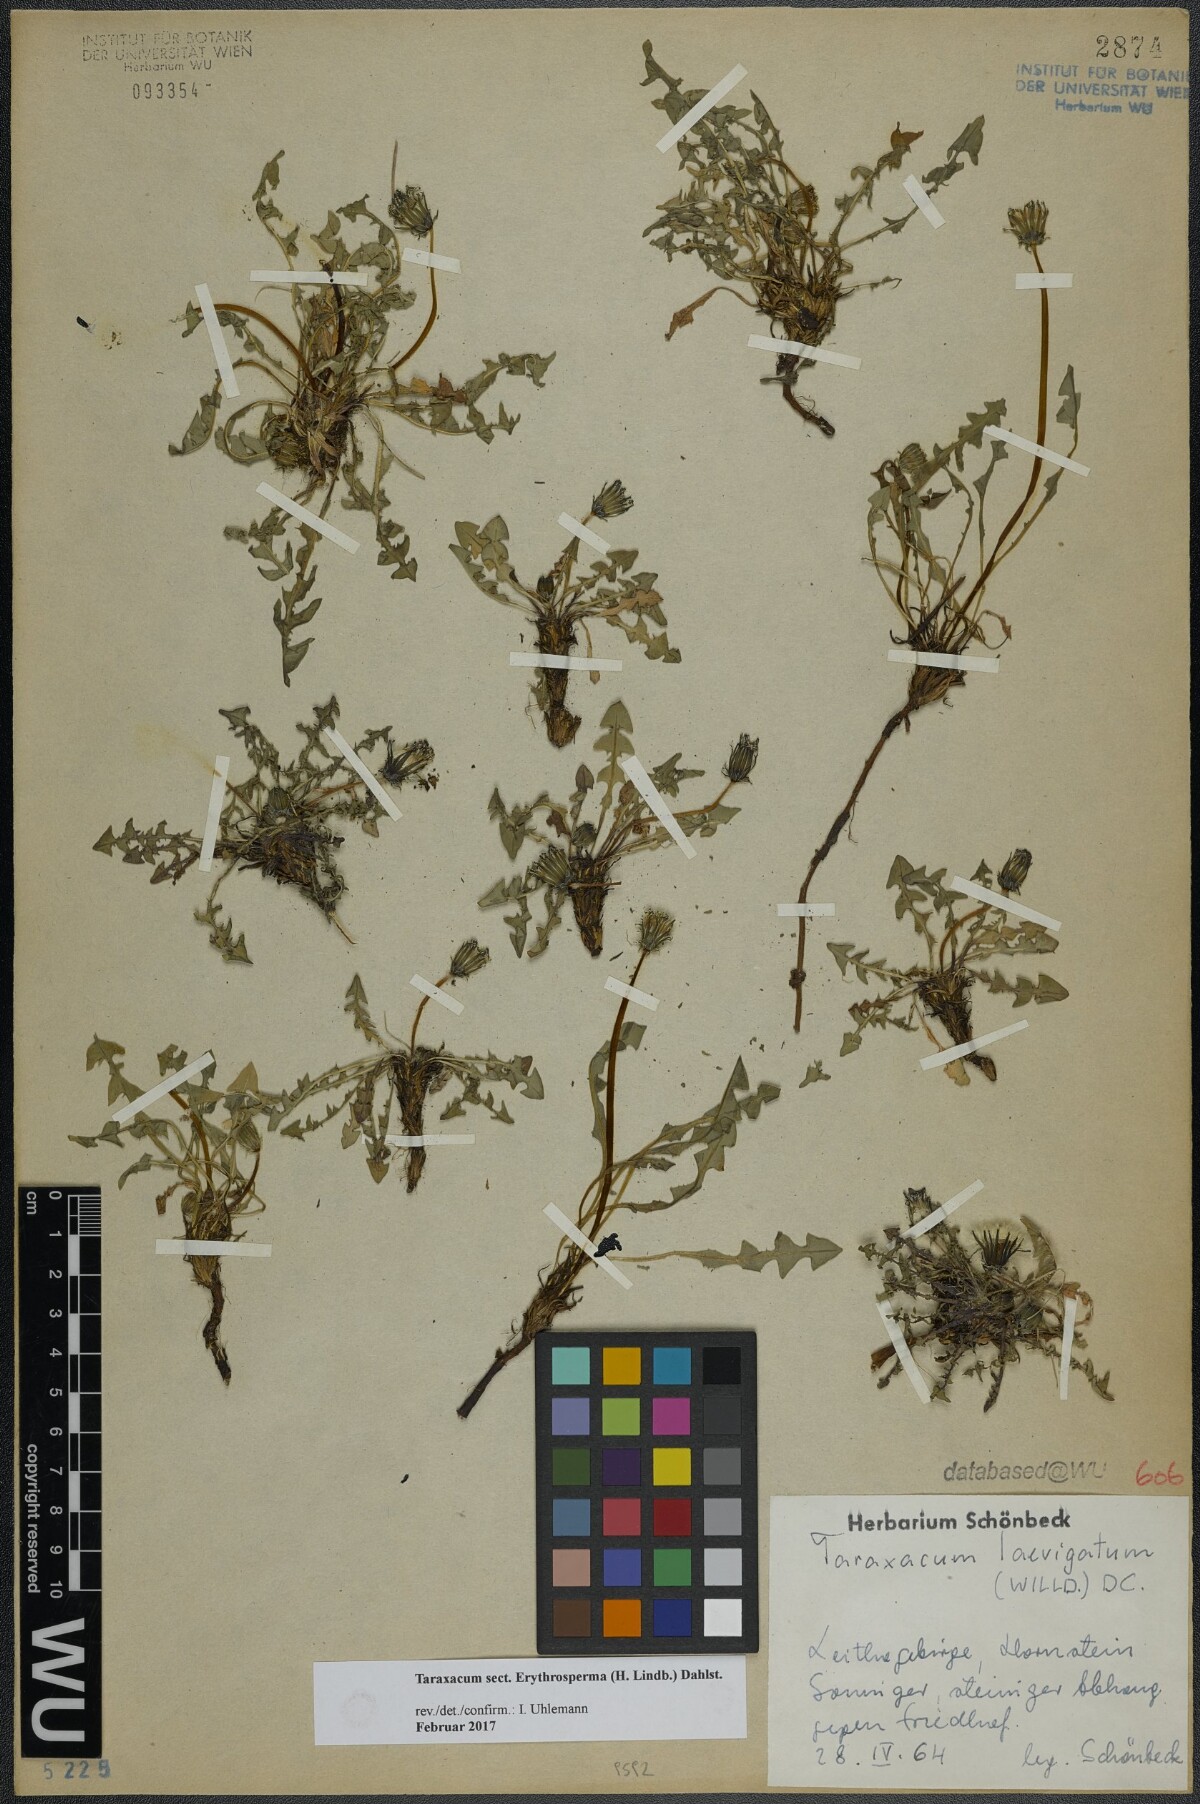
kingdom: Plantae
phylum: Tracheophyta
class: Magnoliopsida
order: Asterales
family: Asteraceae
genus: Taraxacum
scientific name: Taraxacum
